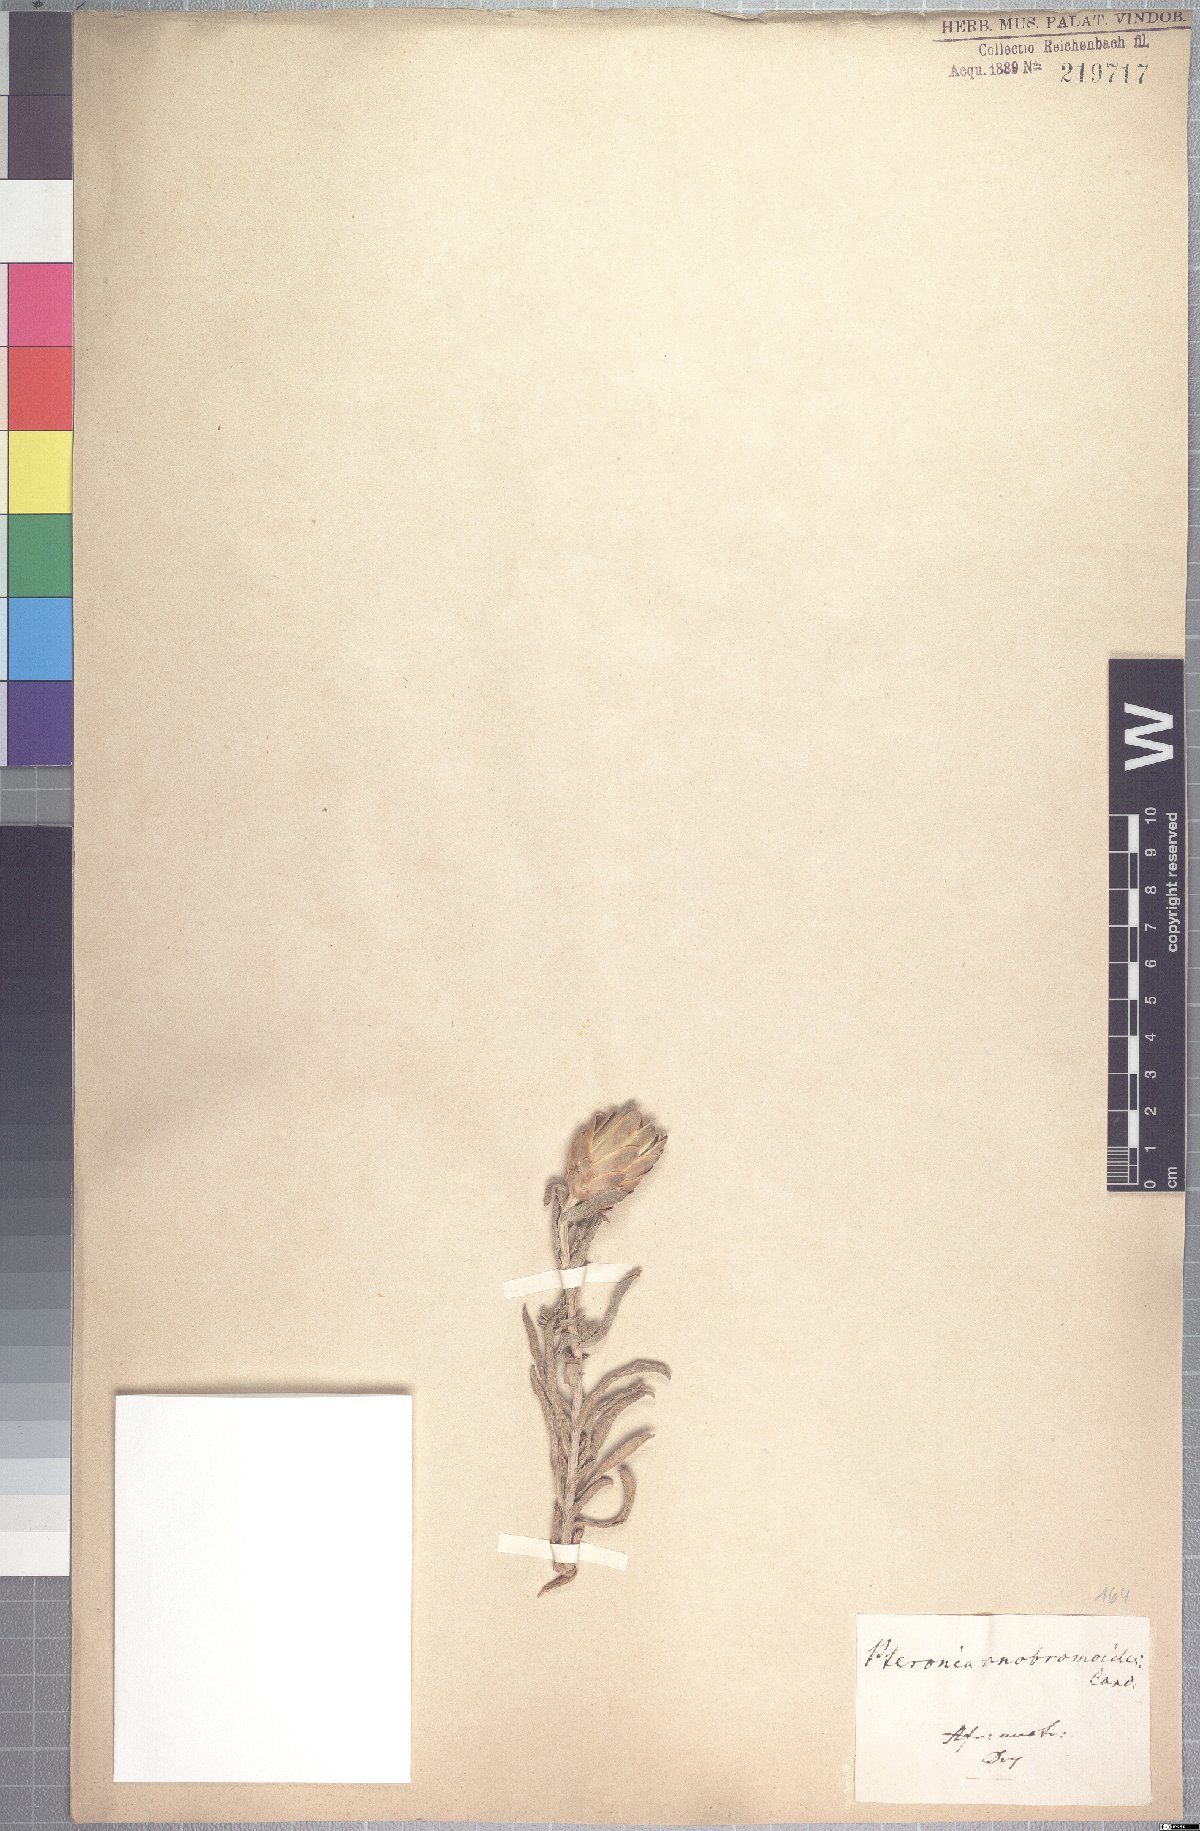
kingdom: Plantae
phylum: Tracheophyta
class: Magnoliopsida
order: Asterales
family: Asteraceae
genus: Pteronia
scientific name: Pteronia onobromoides
